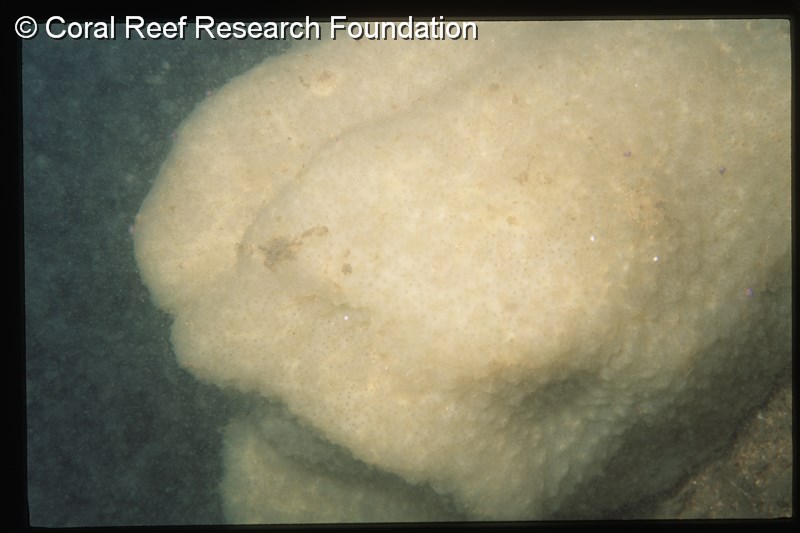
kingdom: Animalia
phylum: Chordata
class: Ascidiacea
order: Aplousobranchia
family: Polycitoridae
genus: Eudistoma
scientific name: Eudistoma
